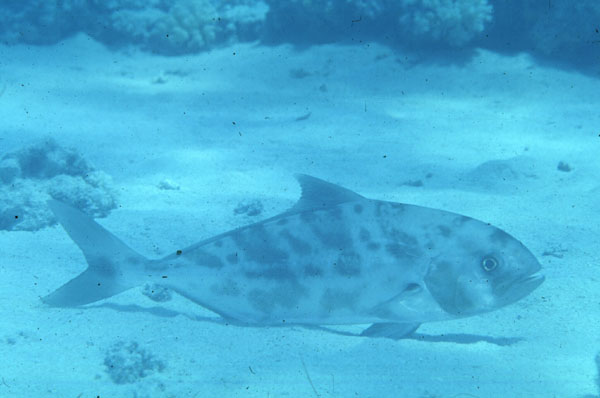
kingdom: Animalia
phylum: Chordata
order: Perciformes
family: Carangidae
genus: Seriolina
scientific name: Seriolina nigrofasciata
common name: Blackbanded trevally
